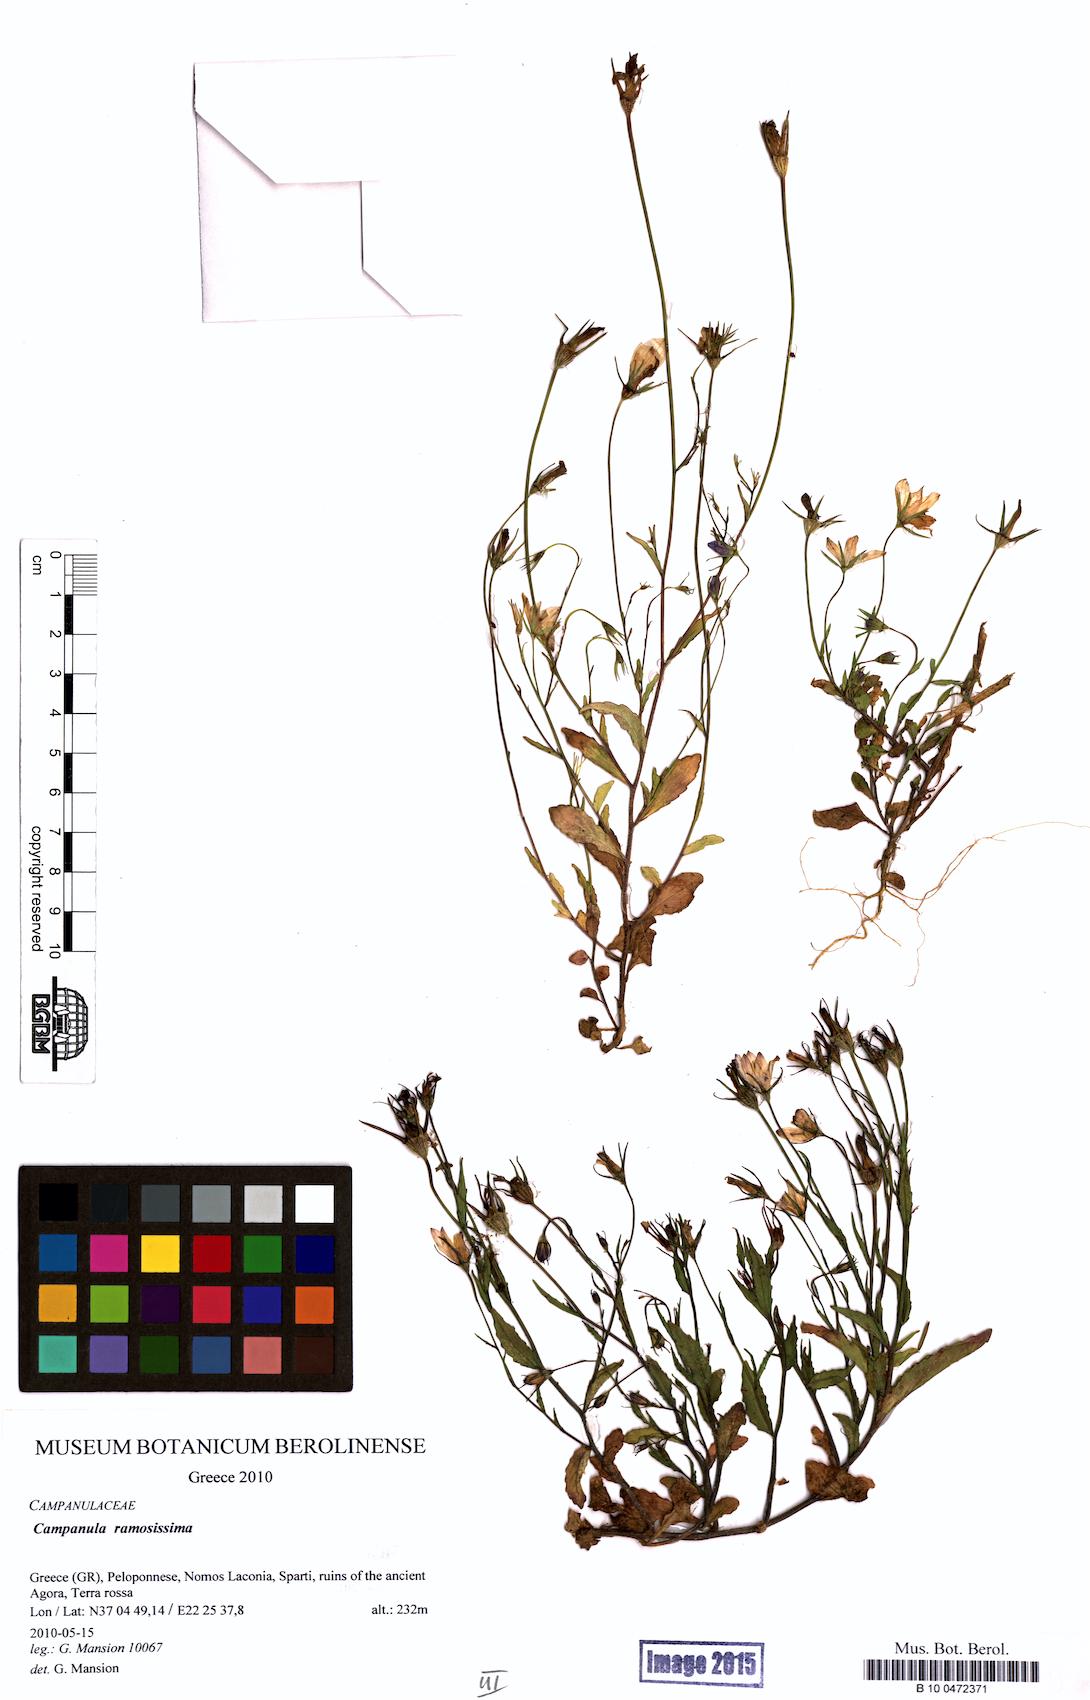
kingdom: Plantae
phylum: Tracheophyta
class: Magnoliopsida
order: Asterales
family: Campanulaceae
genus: Campanula
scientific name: Campanula ramosissima
